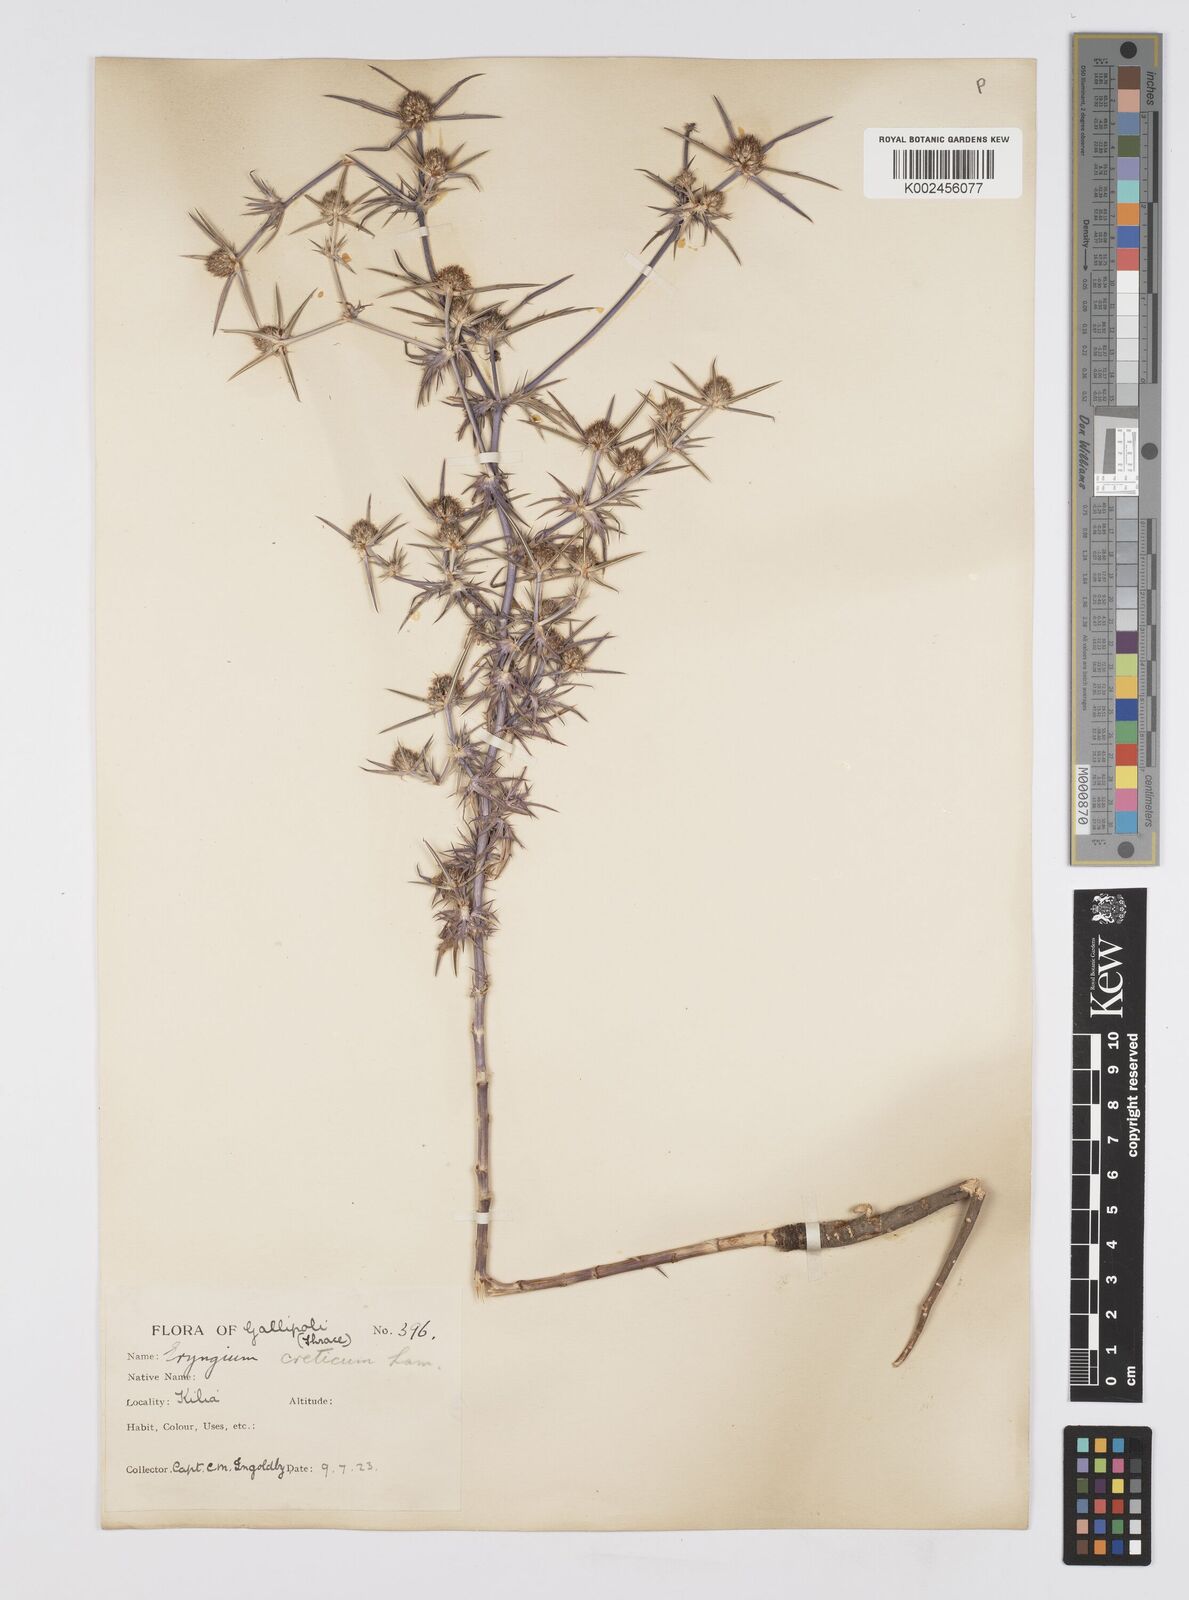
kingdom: Plantae
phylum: Tracheophyta
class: Magnoliopsida
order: Apiales
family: Apiaceae
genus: Eryngium
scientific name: Eryngium creticum
